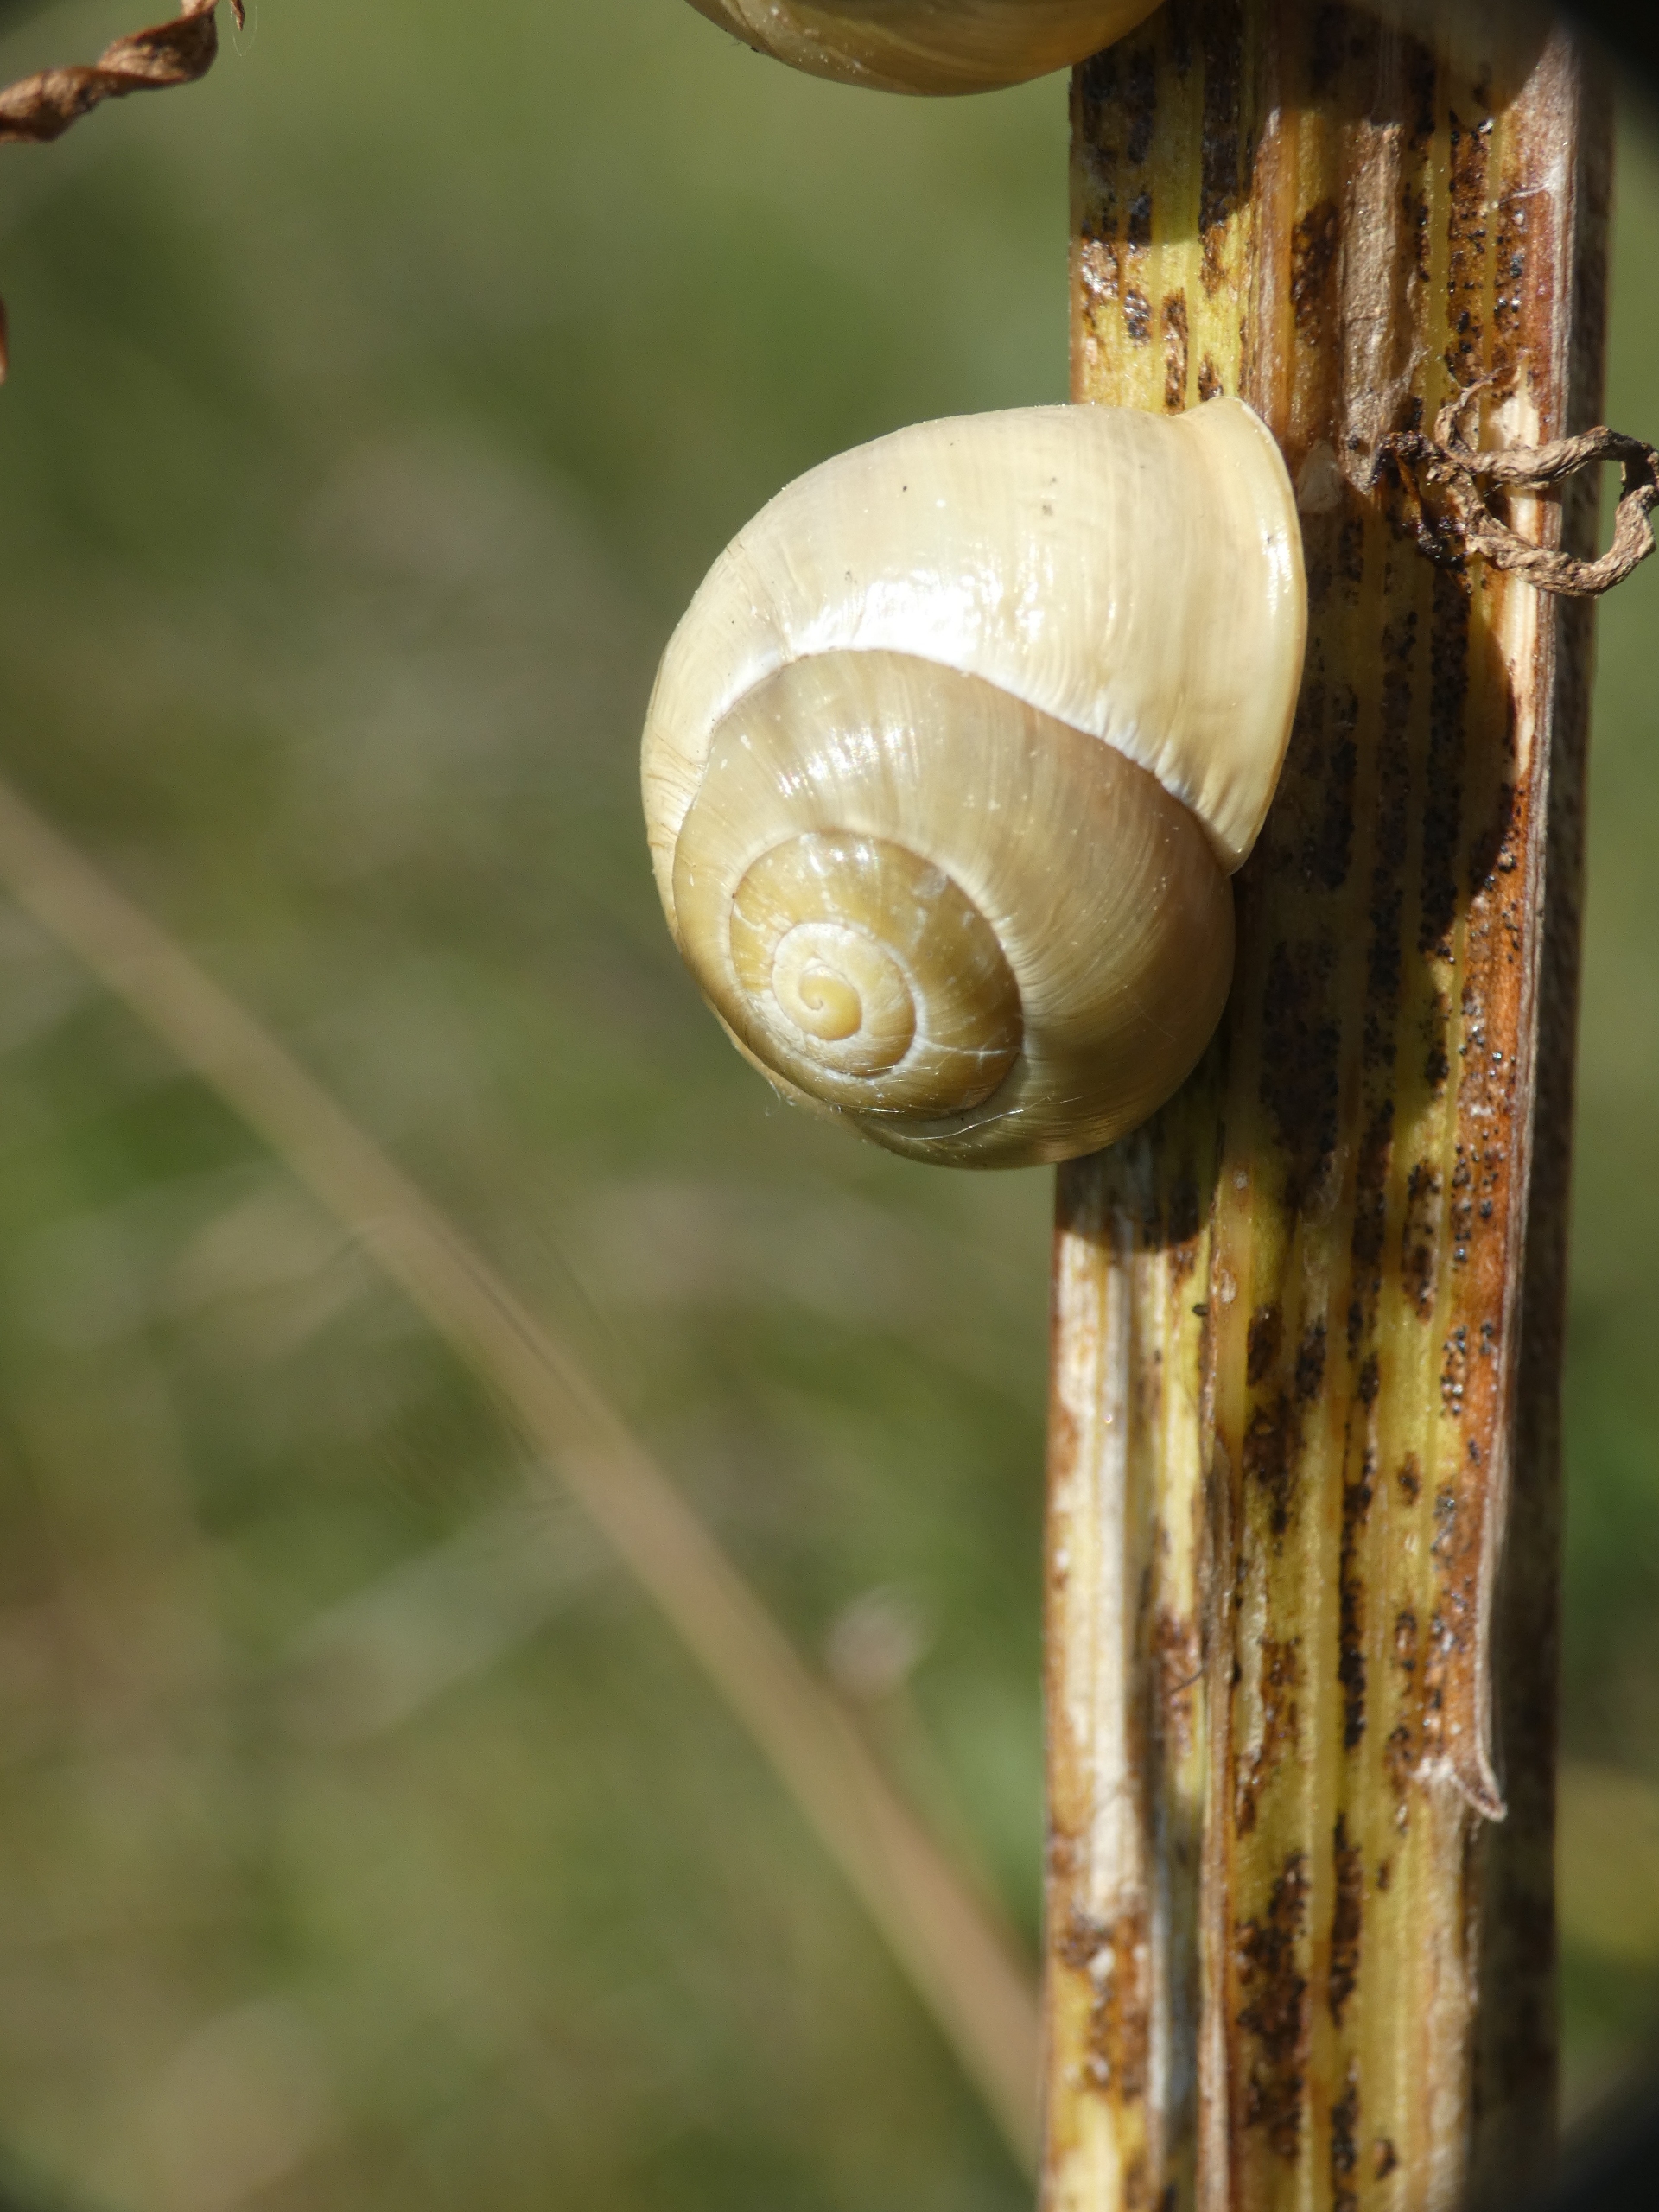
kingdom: Animalia
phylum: Mollusca
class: Gastropoda
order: Stylommatophora
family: Helicidae
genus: Cepaea
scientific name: Cepaea hortensis
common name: Havesnegl
